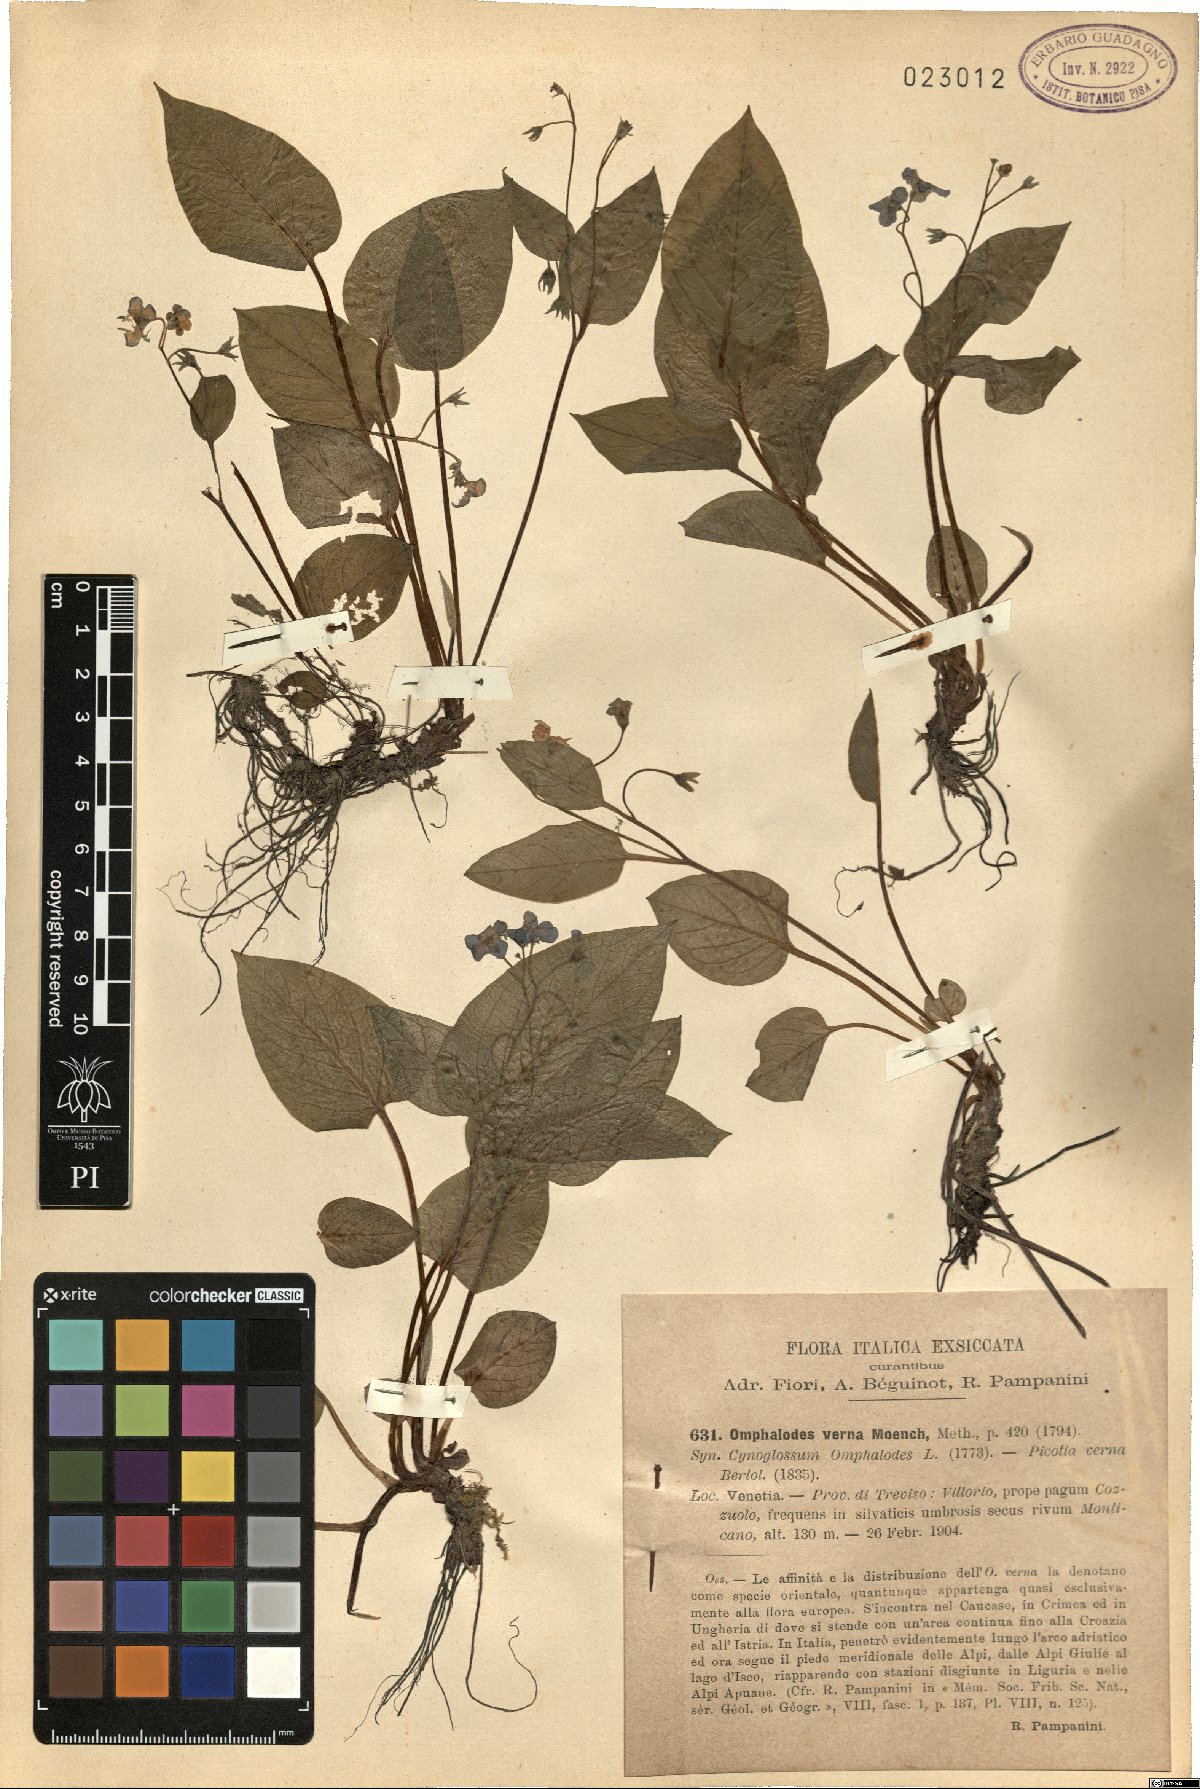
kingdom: Plantae
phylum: Tracheophyta
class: Magnoliopsida
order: Boraginales
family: Boraginaceae
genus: Omphalodes
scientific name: Omphalodes verna
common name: Blue-eyed-mary
